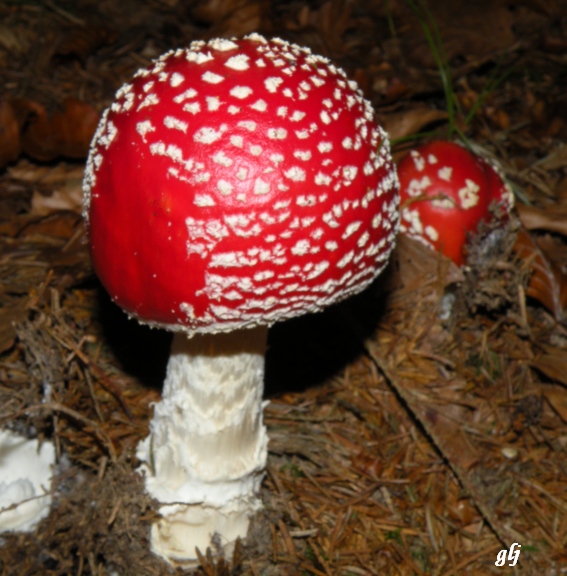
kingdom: Fungi
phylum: Basidiomycota
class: Agaricomycetes
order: Agaricales
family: Amanitaceae
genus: Amanita
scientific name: Amanita muscaria
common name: rød fluesvamp
